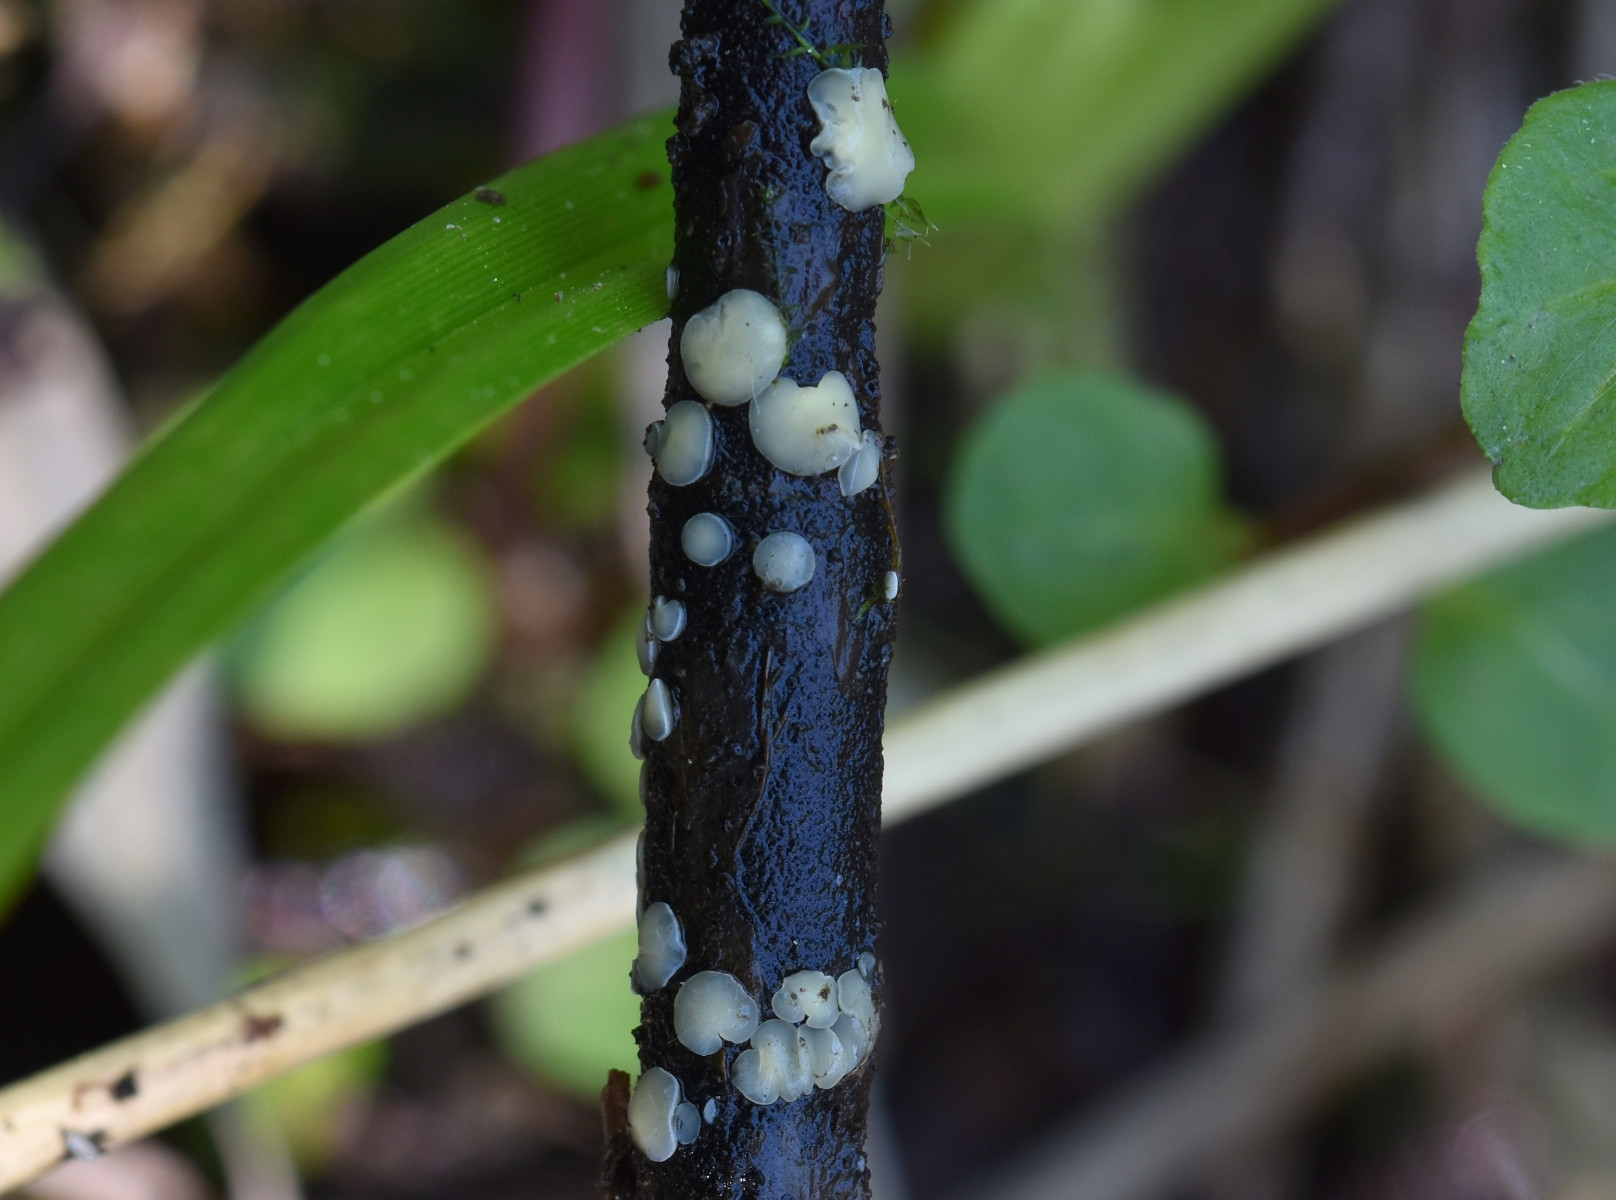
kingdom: Fungi
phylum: Ascomycota
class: Leotiomycetes
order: Helotiales
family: Mollisiaceae
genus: Trichobelonium
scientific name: Trichobelonium kneiffii
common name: tagrør-gråskive
